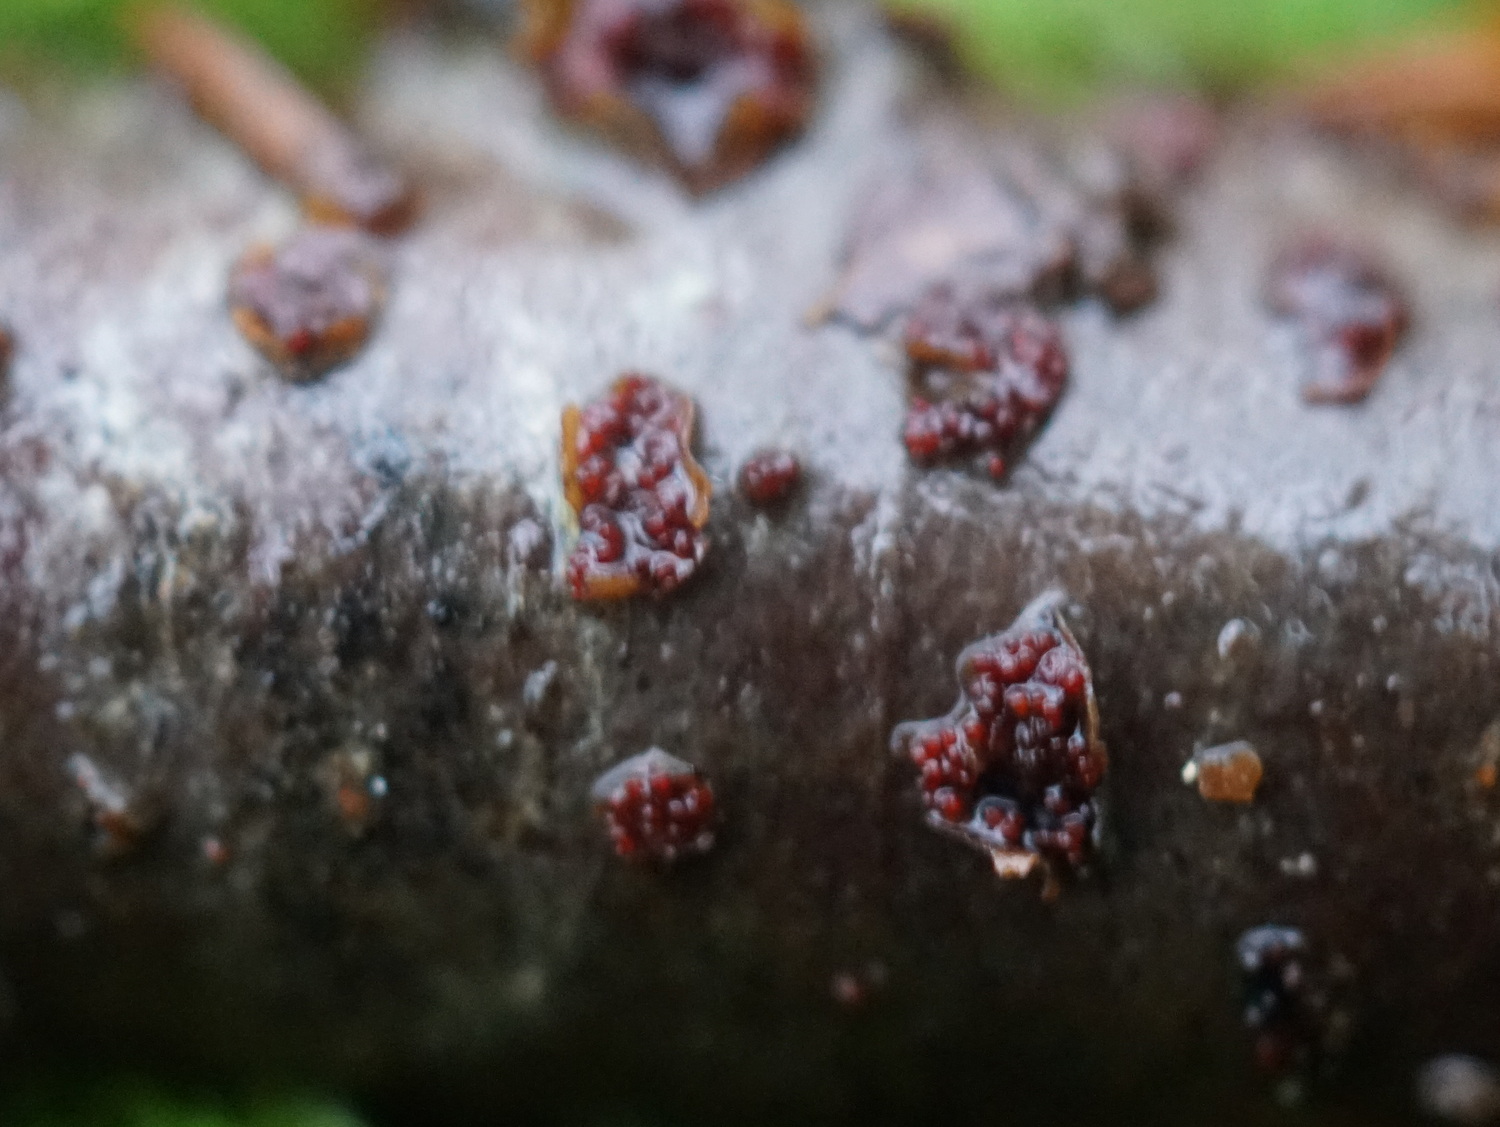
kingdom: Fungi
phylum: Ascomycota
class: Sordariomycetes
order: Hypocreales
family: Nectriaceae
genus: Neonectria
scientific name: Neonectria coccinea
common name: bøgebark-cinnobersvamp
